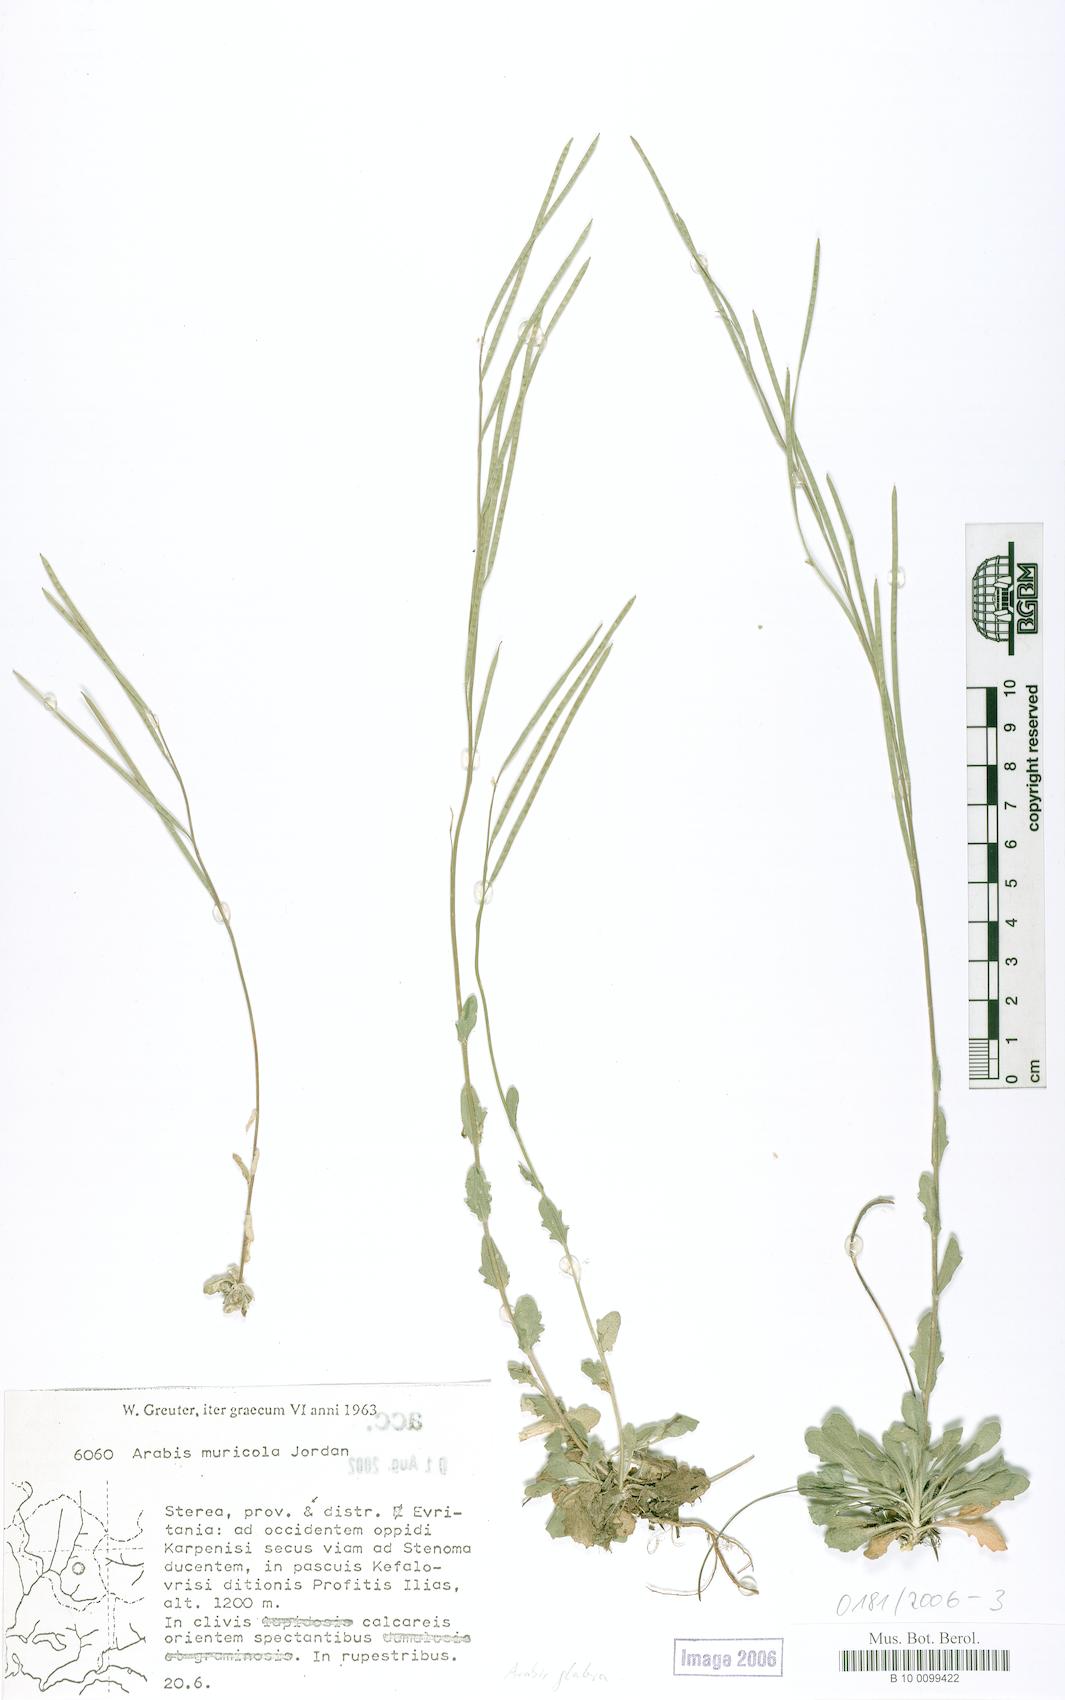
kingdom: Plantae
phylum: Tracheophyta
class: Magnoliopsida
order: Brassicales
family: Brassicaceae
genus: Turritis
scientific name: Turritis glabra
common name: Tower rockcress
